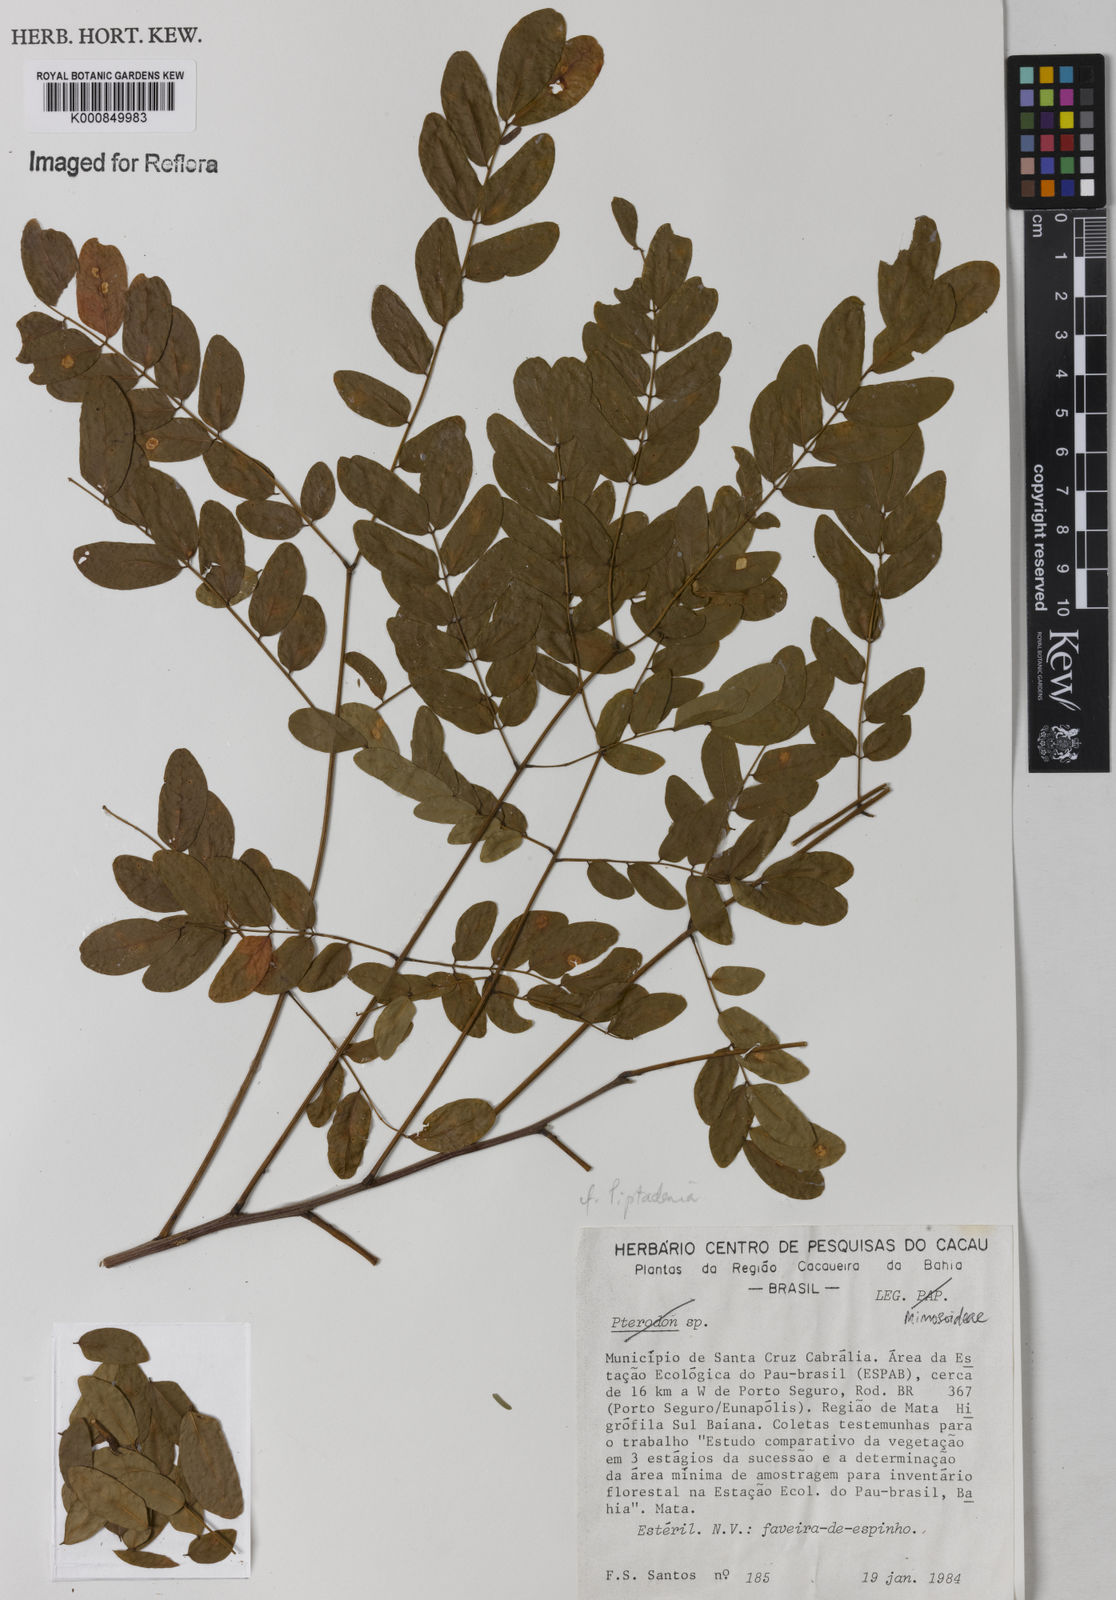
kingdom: Plantae
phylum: Tracheophyta
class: Magnoliopsida
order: Fabales
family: Fabaceae
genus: Piptadenia
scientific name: Piptadenia
